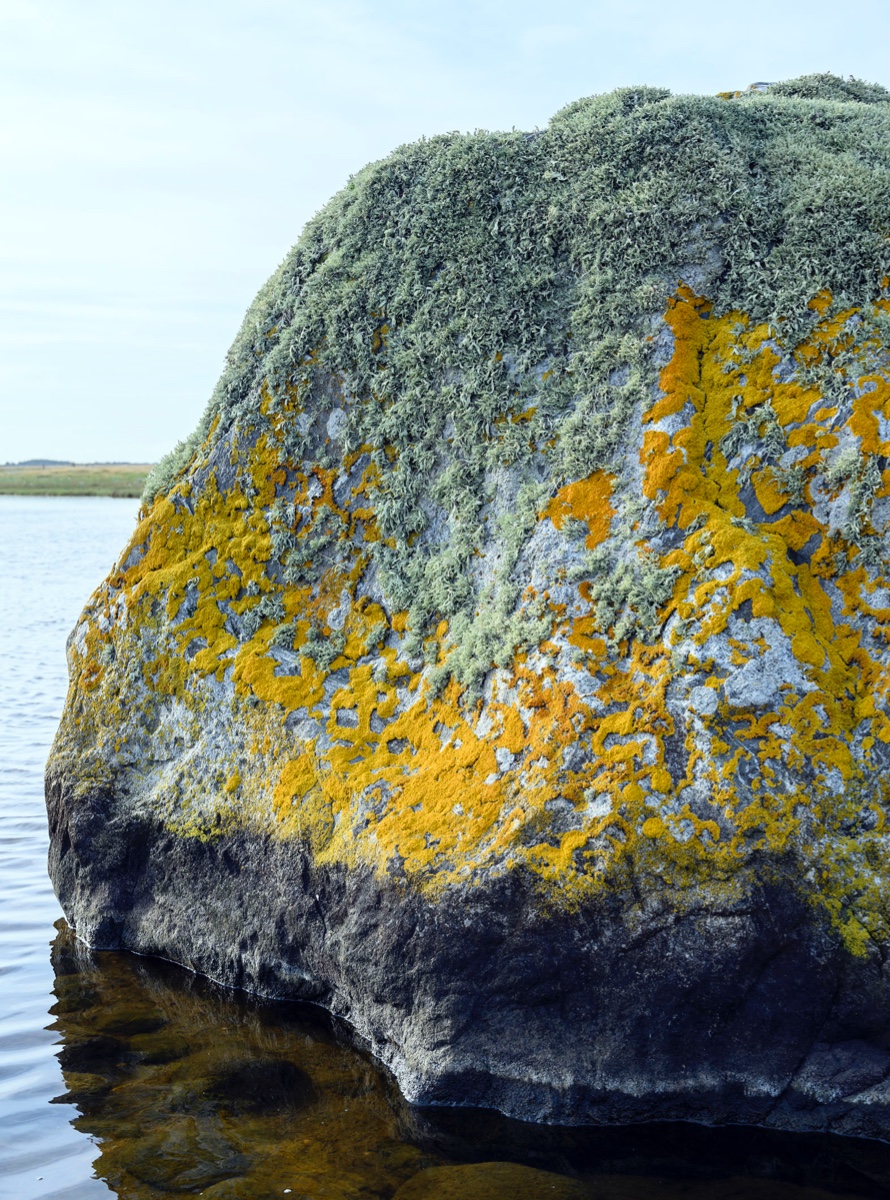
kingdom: Fungi
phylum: Ascomycota
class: Lecanoromycetes
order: Lecanorales
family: Ramalinaceae
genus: Ramalina
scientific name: Ramalina polymorpha
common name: kornet grenlav
